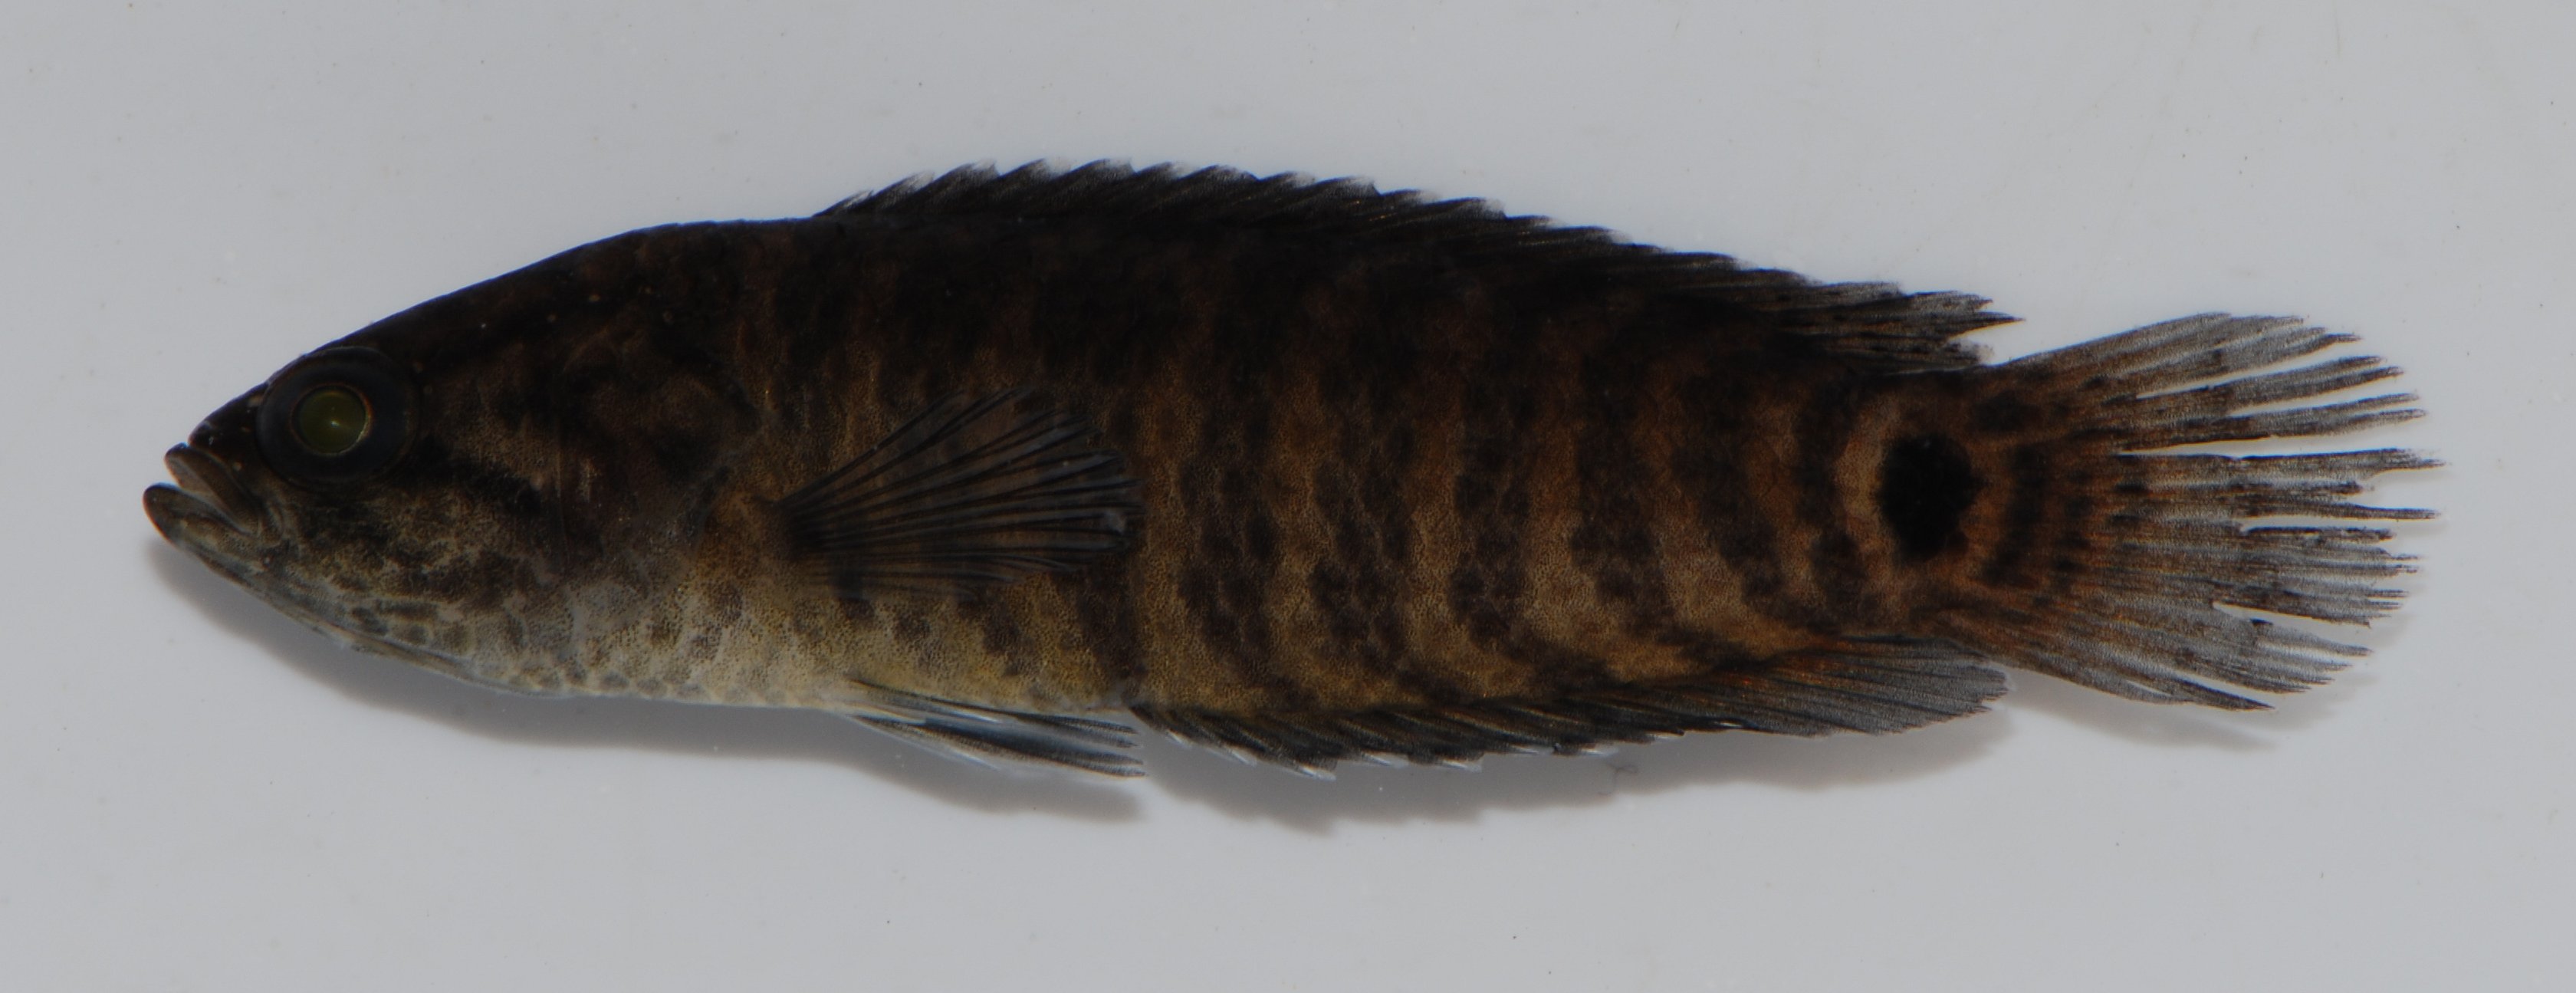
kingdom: Animalia
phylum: Chordata
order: Perciformes
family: Anabantidae
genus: Microctenopoma
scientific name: Microctenopoma intermedium
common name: Blackspot climbing perch
